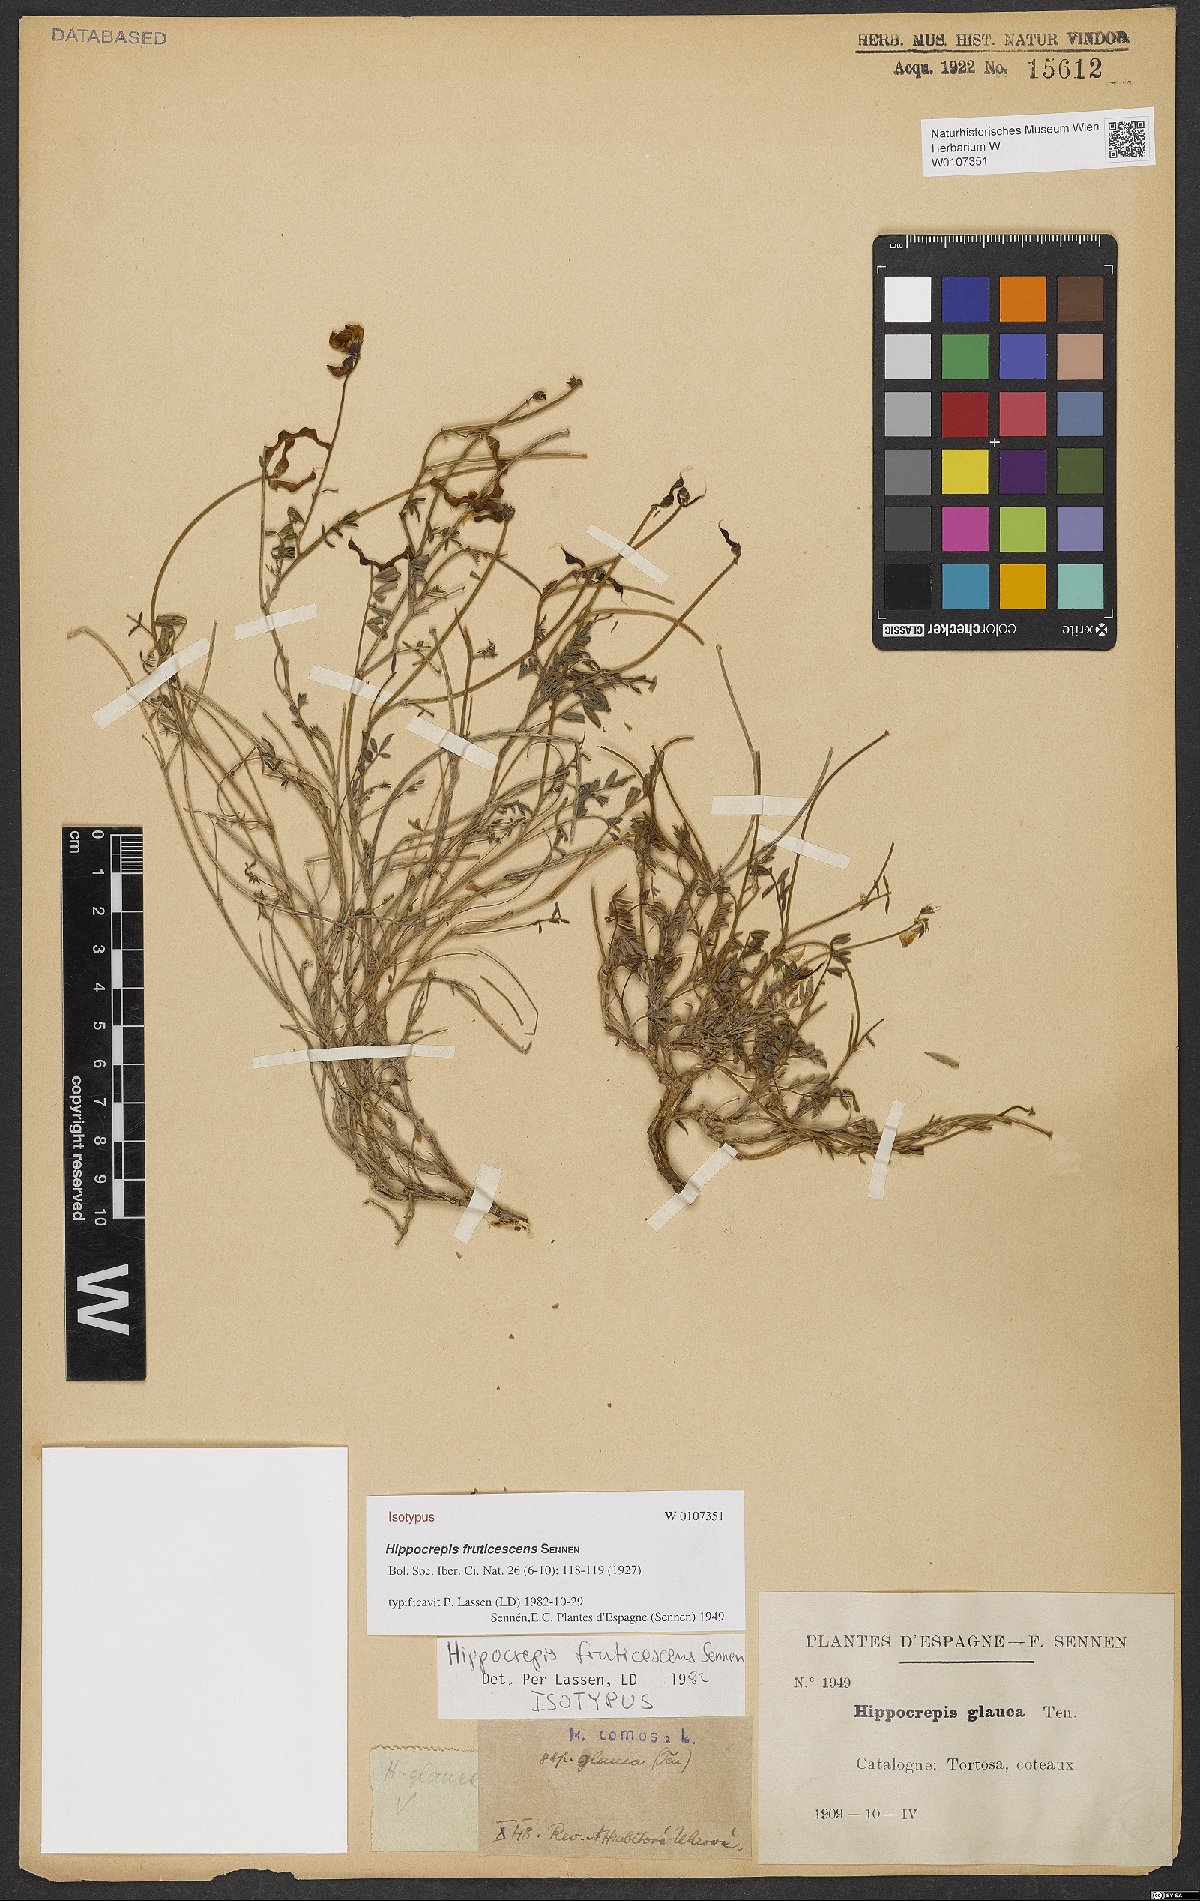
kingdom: Plantae
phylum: Tracheophyta
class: Magnoliopsida
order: Fabales
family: Fabaceae
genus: Hippocrepis
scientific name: Hippocrepis fruticescens
